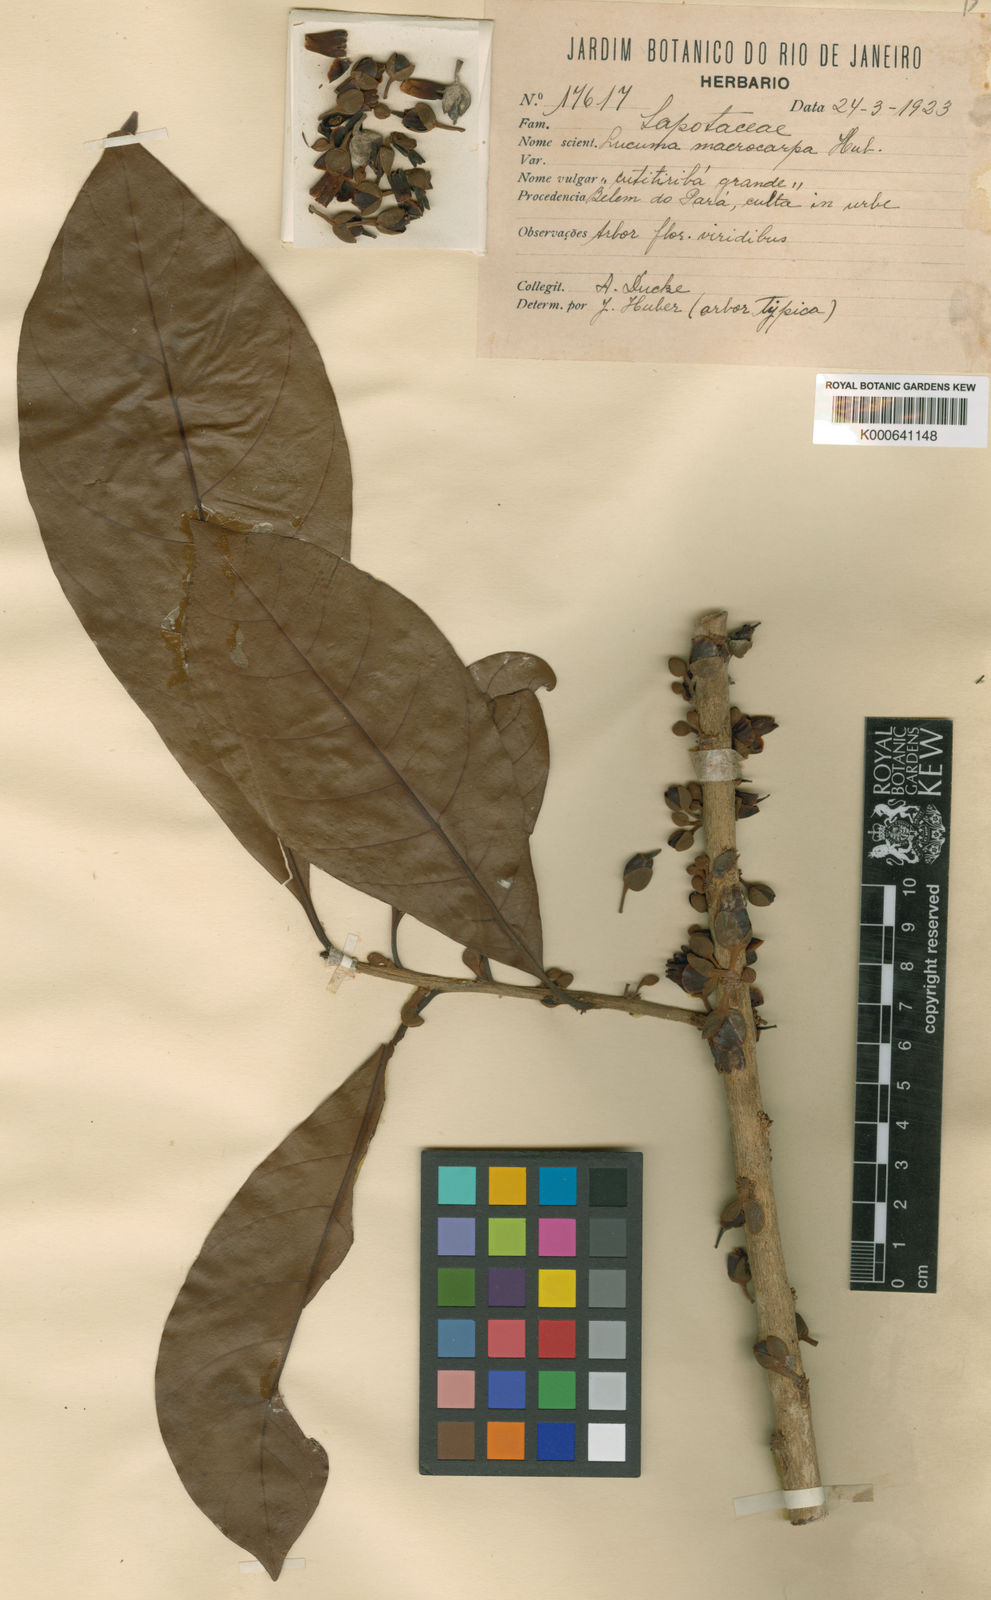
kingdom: Plantae
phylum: Tracheophyta
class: Magnoliopsida
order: Ericales
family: Sapotaceae
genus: Pouteria
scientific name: Pouteria macrocarpa
